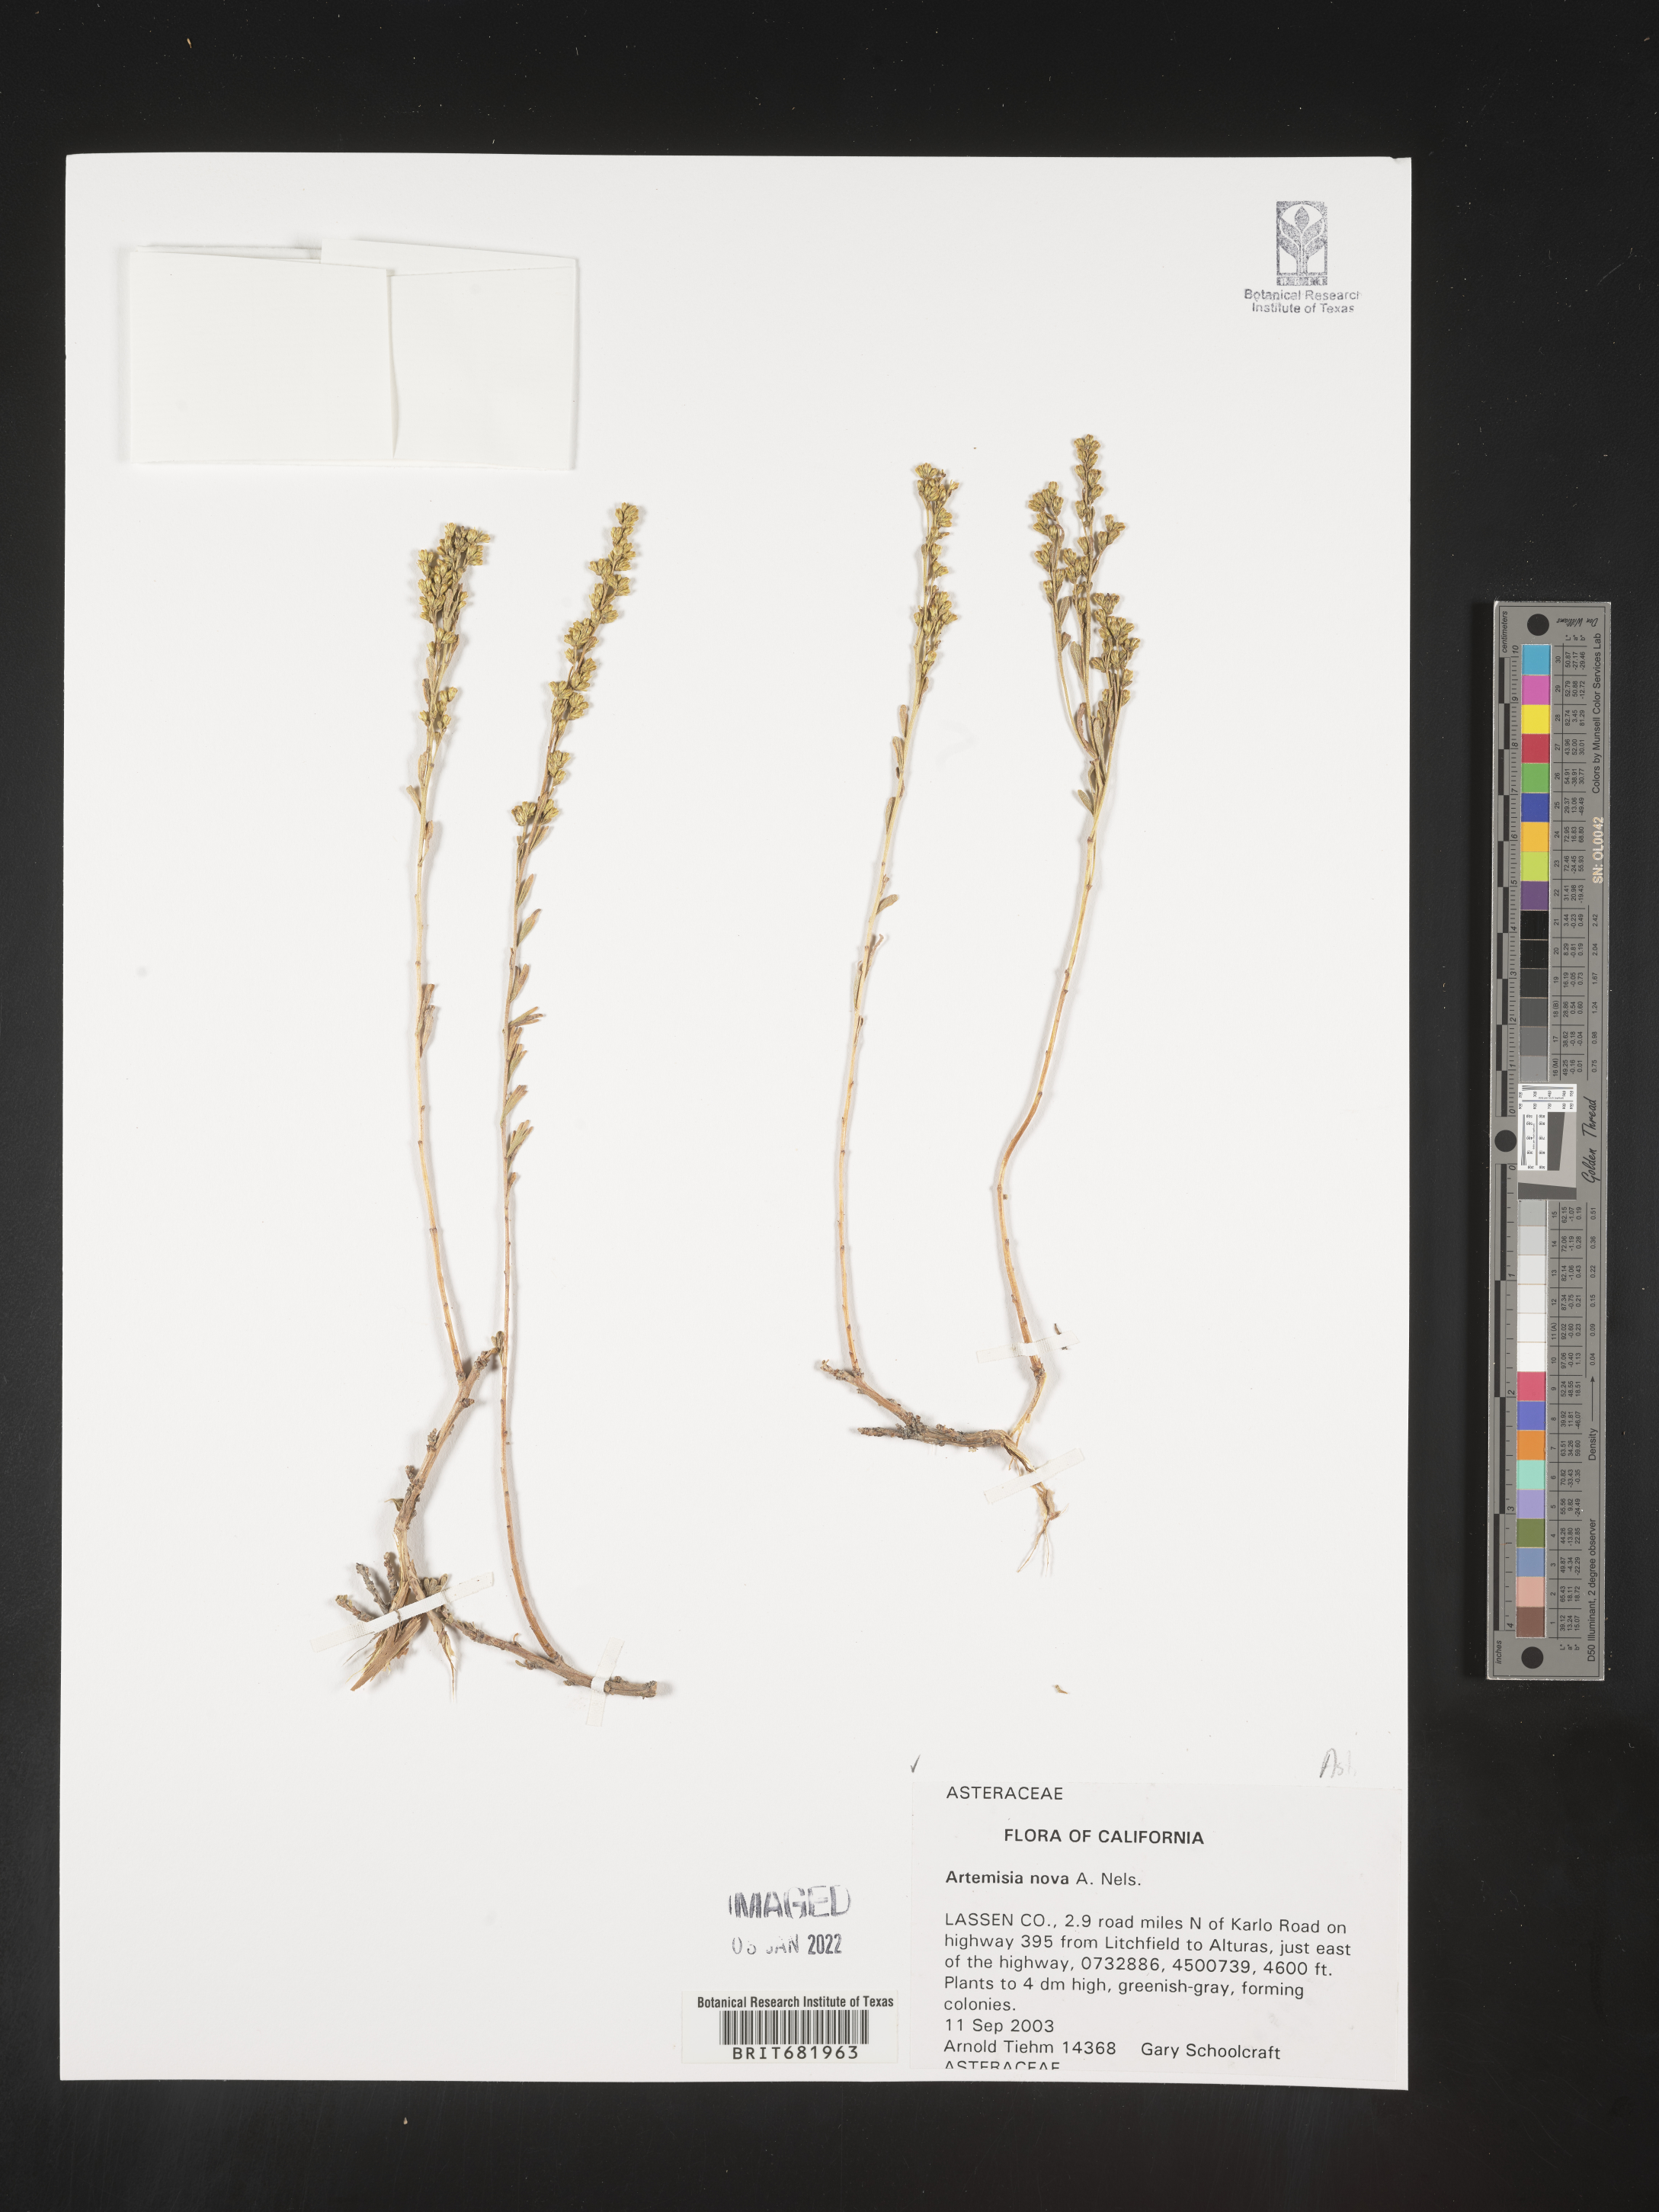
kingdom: Plantae
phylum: Tracheophyta
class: Magnoliopsida
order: Asterales
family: Asteraceae
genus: Artemisia
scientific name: Artemisia nova
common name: Black-sage
